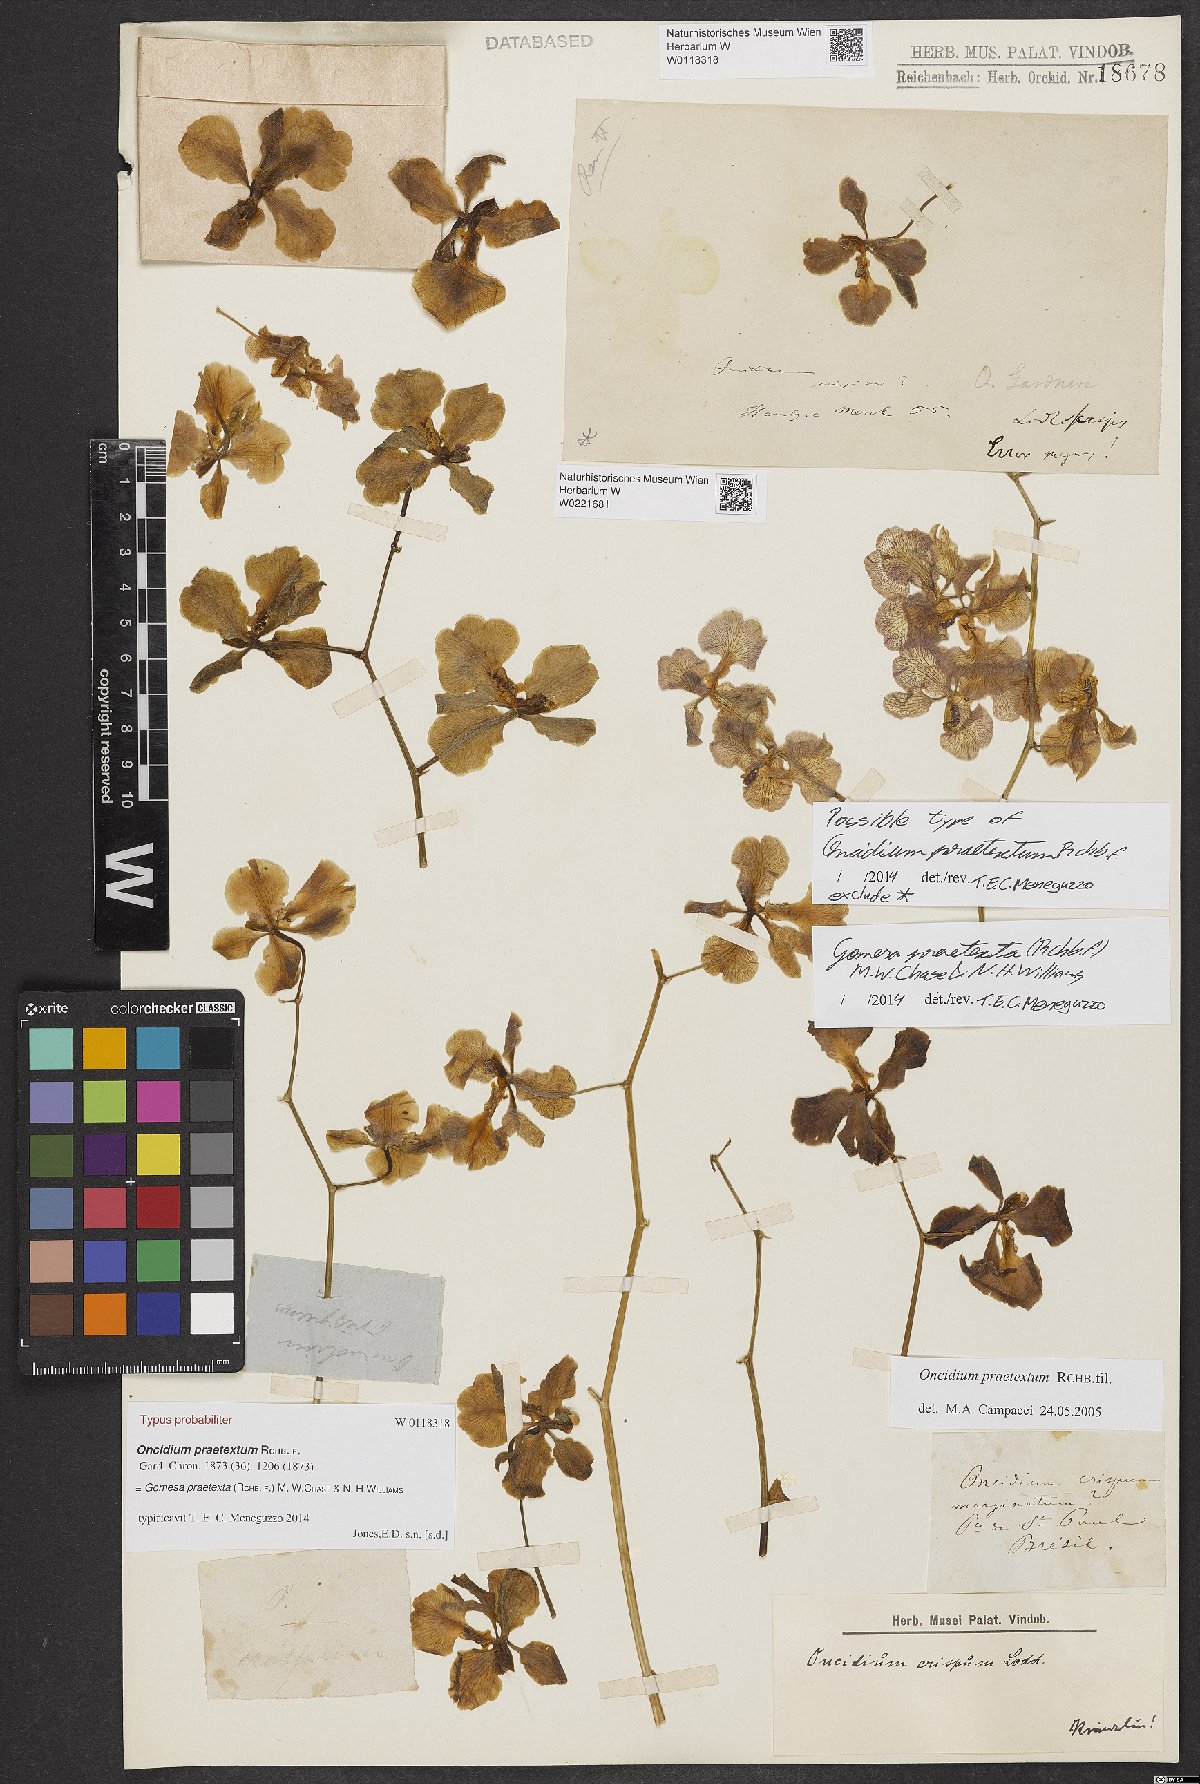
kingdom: Plantae
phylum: Tracheophyta
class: Liliopsida
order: Asparagales
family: Orchidaceae
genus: Gomesa
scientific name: Gomesa praetexta
